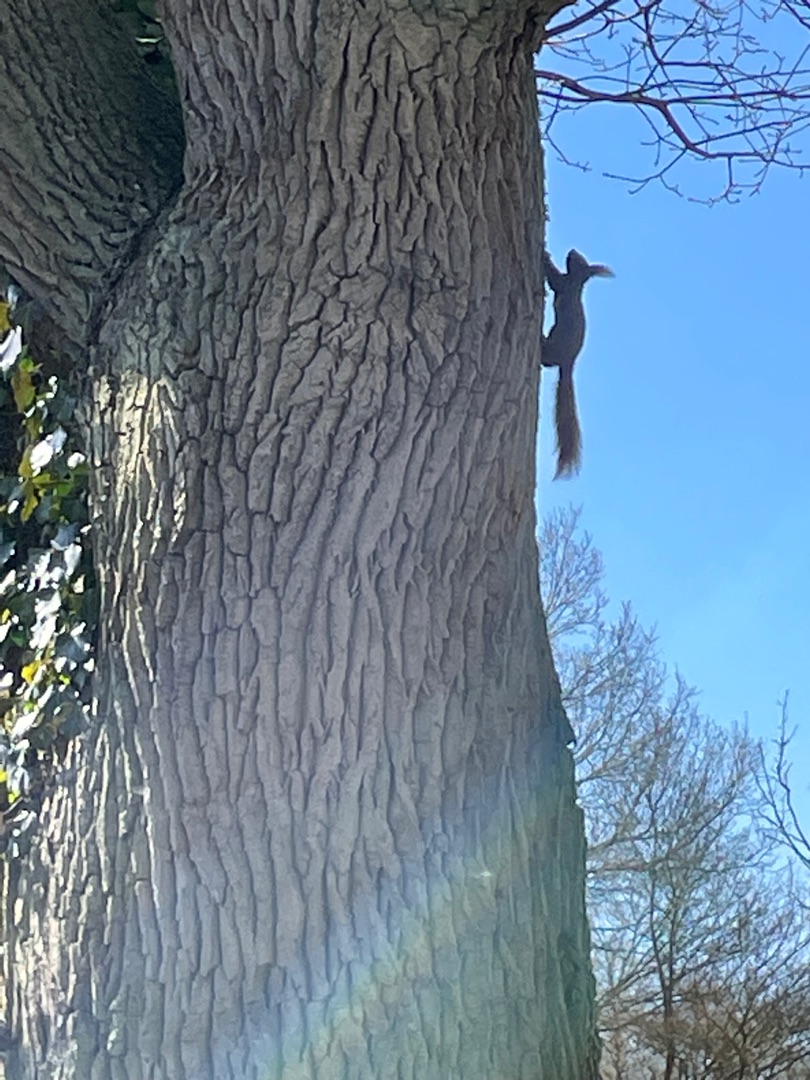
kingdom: Animalia
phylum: Chordata
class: Mammalia
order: Rodentia
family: Sciuridae
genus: Sciurus
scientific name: Sciurus vulgaris
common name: Egern
